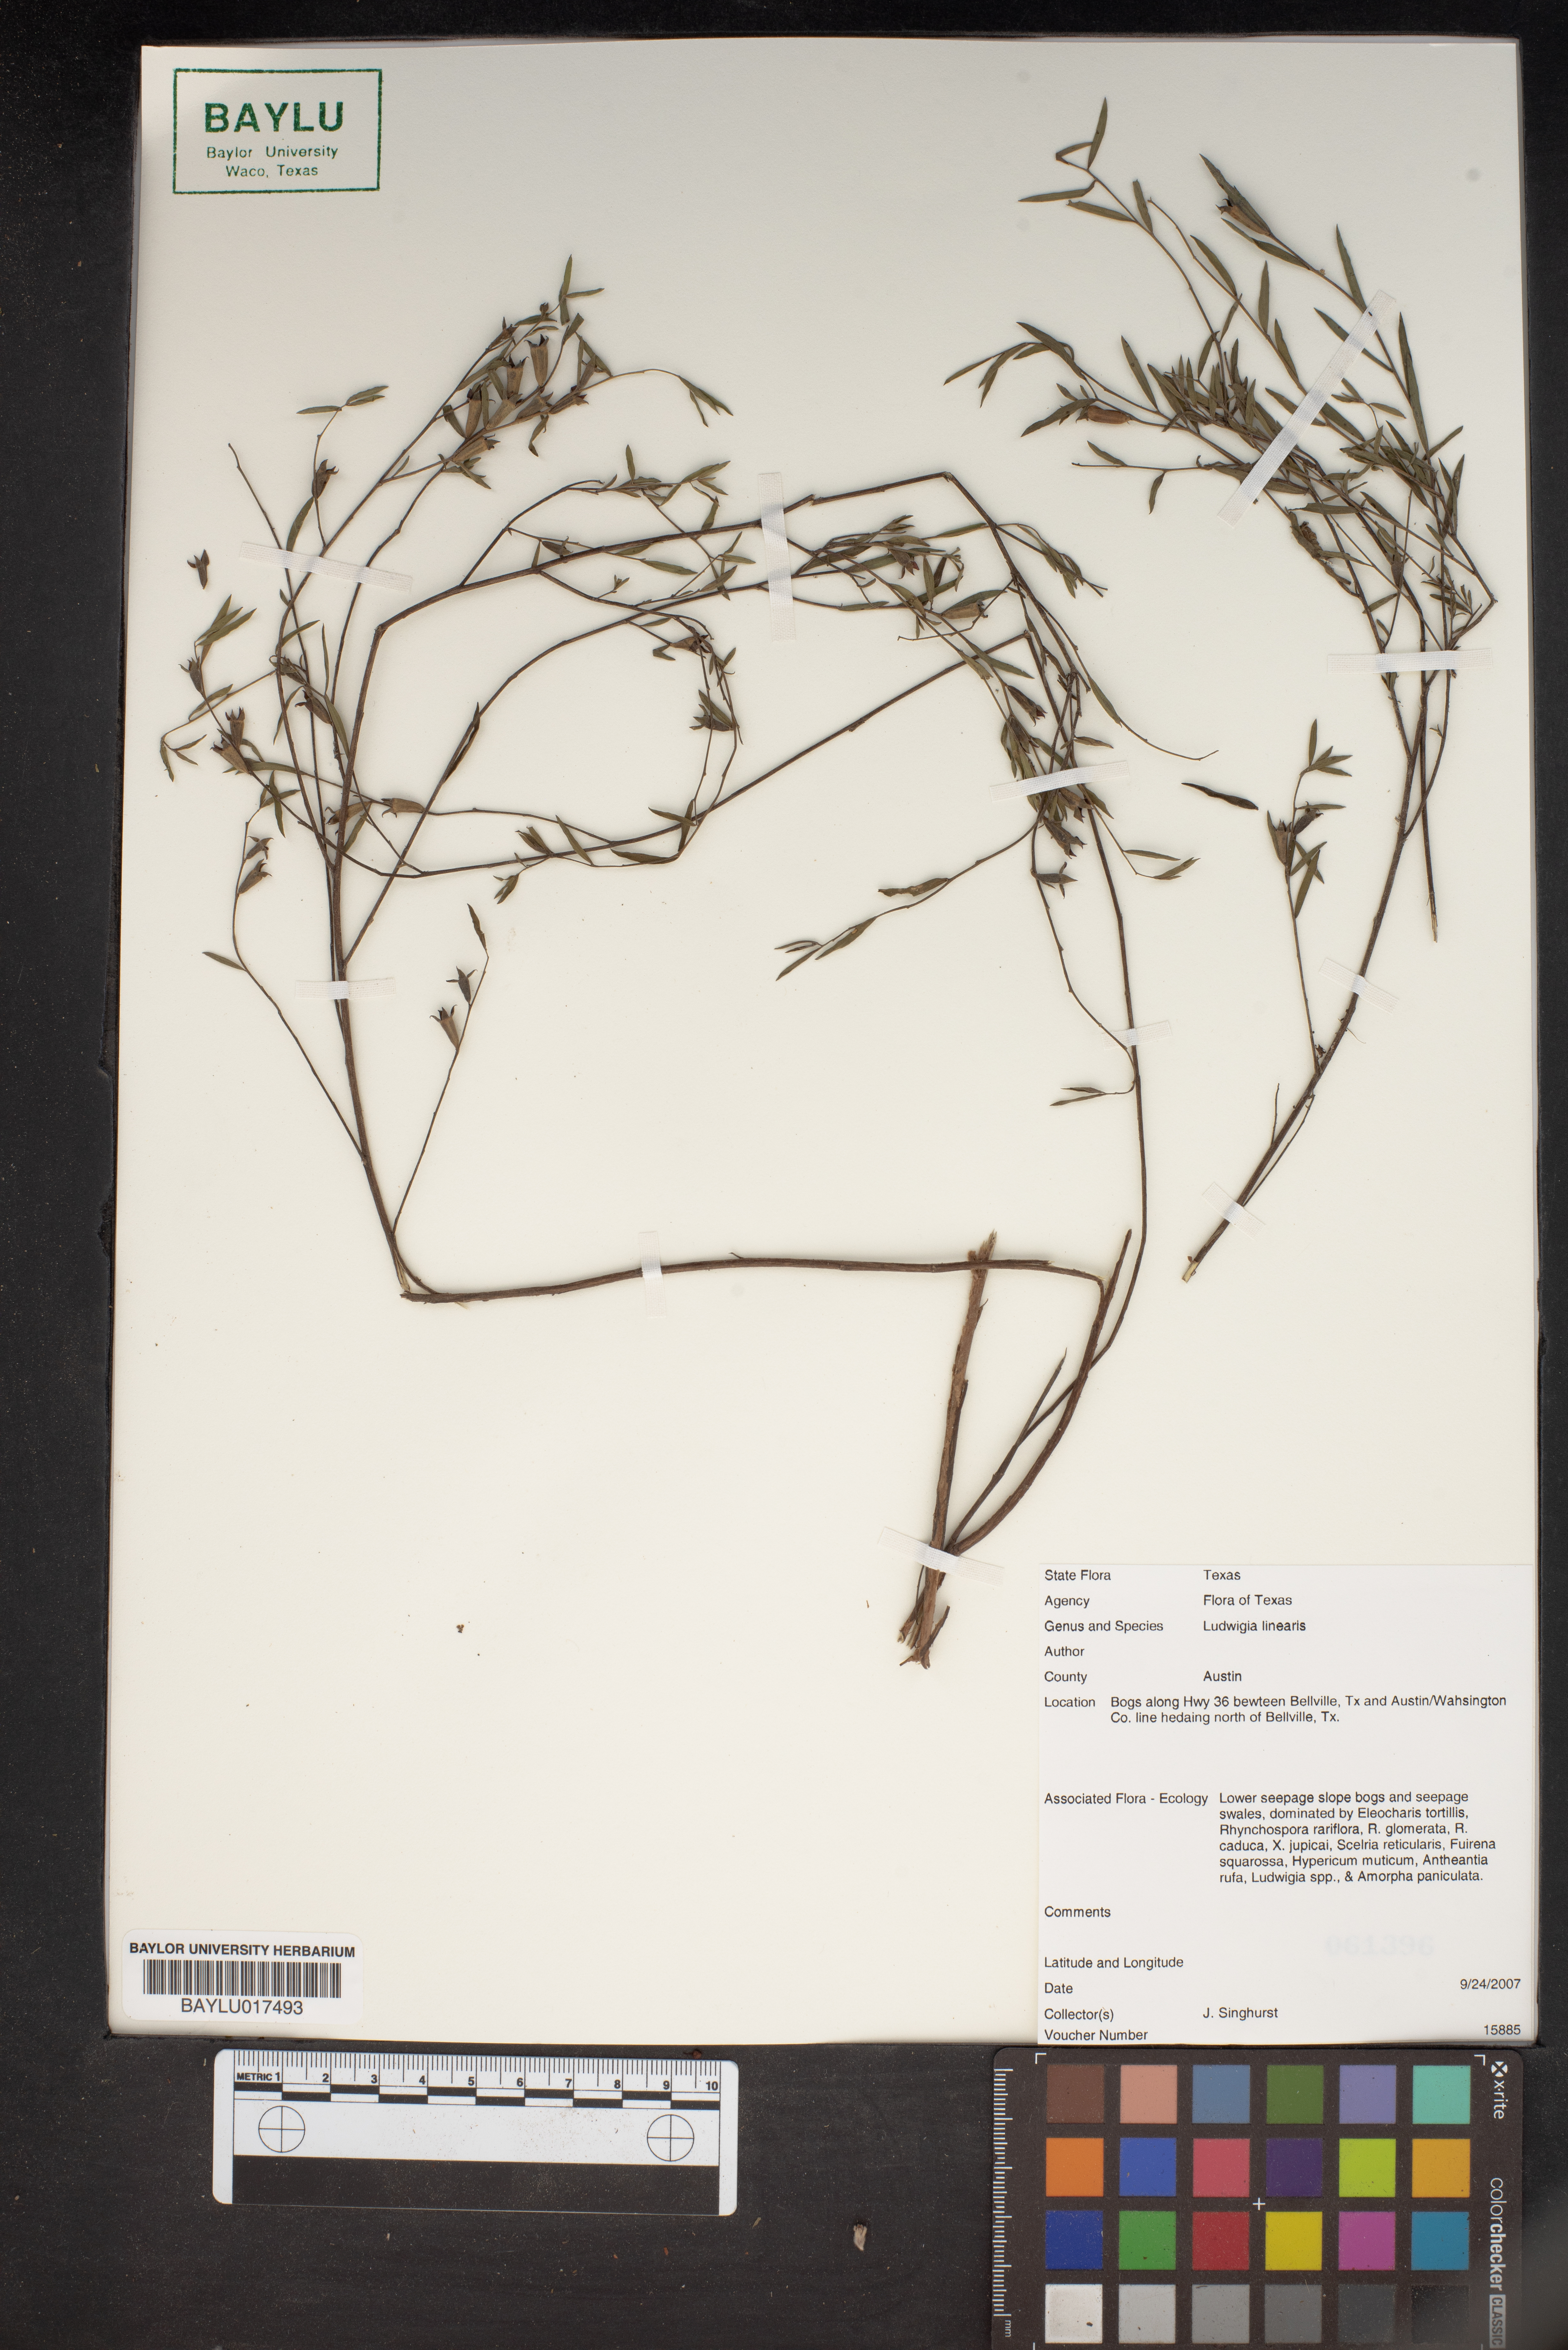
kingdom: Plantae
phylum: Tracheophyta
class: Magnoliopsida
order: Myrtales
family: Onagraceae
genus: Ludwigia
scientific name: Ludwigia linearis
